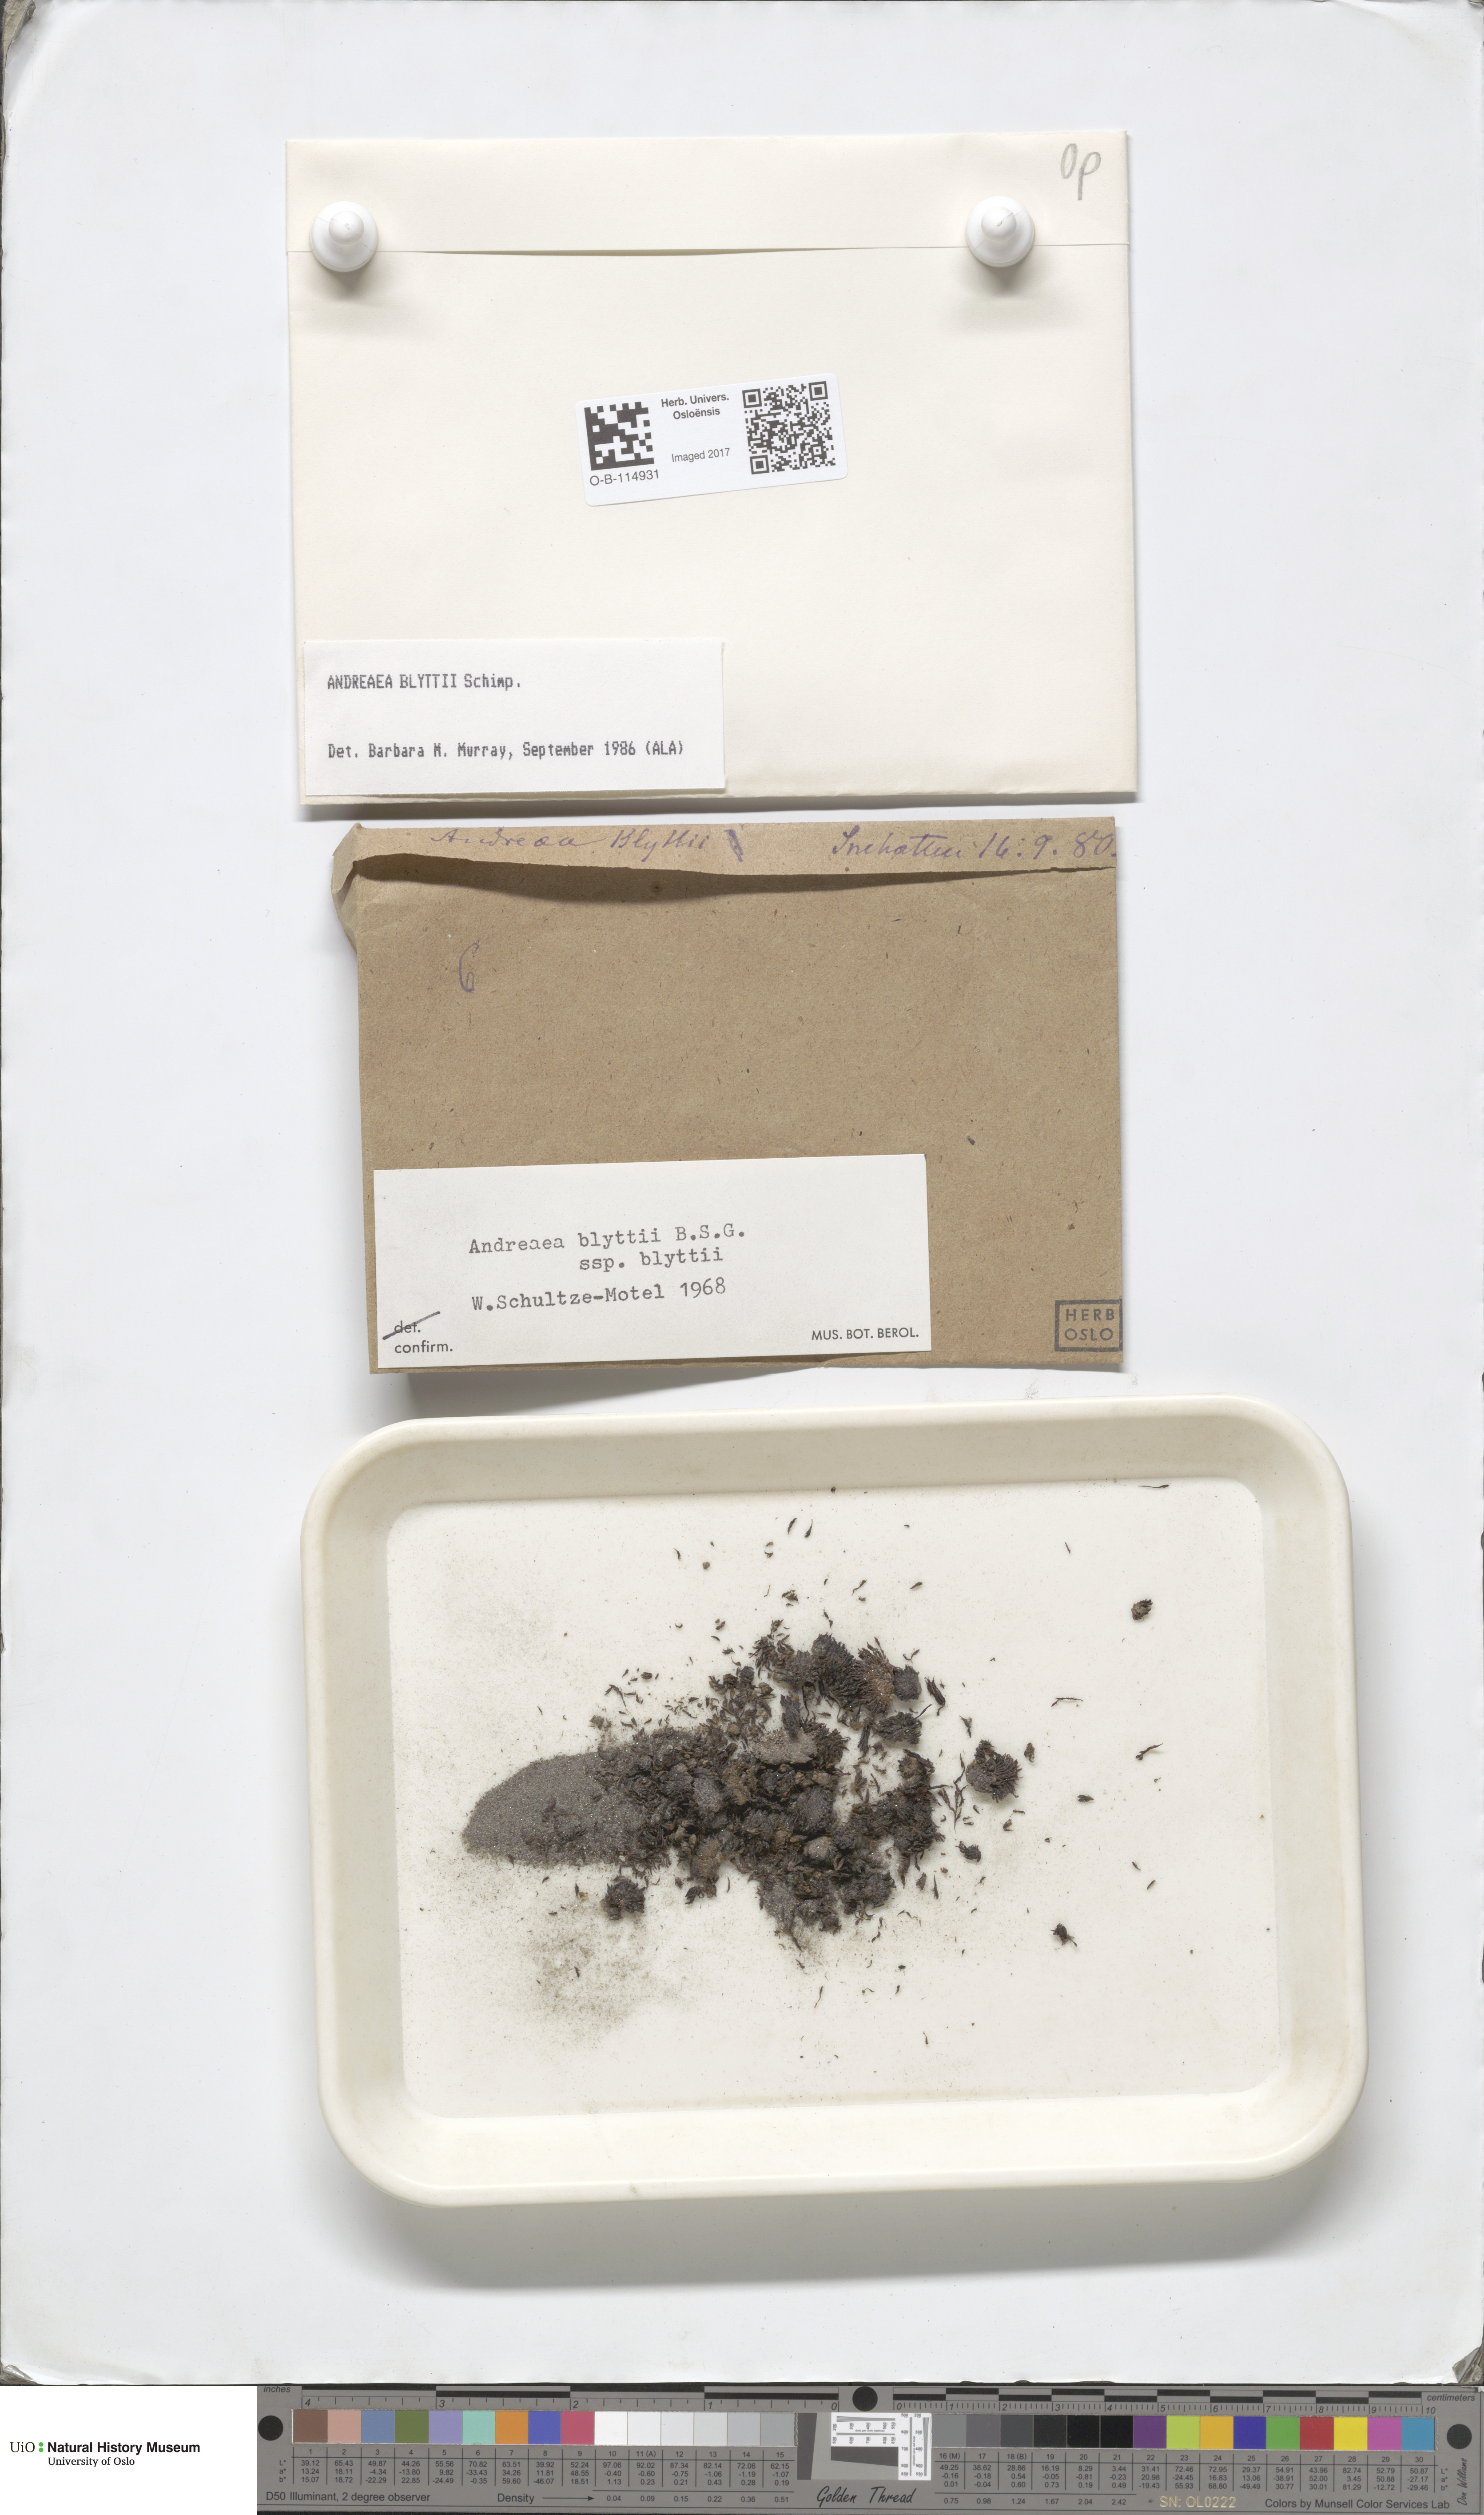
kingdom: Plantae
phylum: Bryophyta
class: Andreaeopsida
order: Andreaeales
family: Andreaeaceae
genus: Andreaea
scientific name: Andreaea hookeri
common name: Alpine rock-moss
